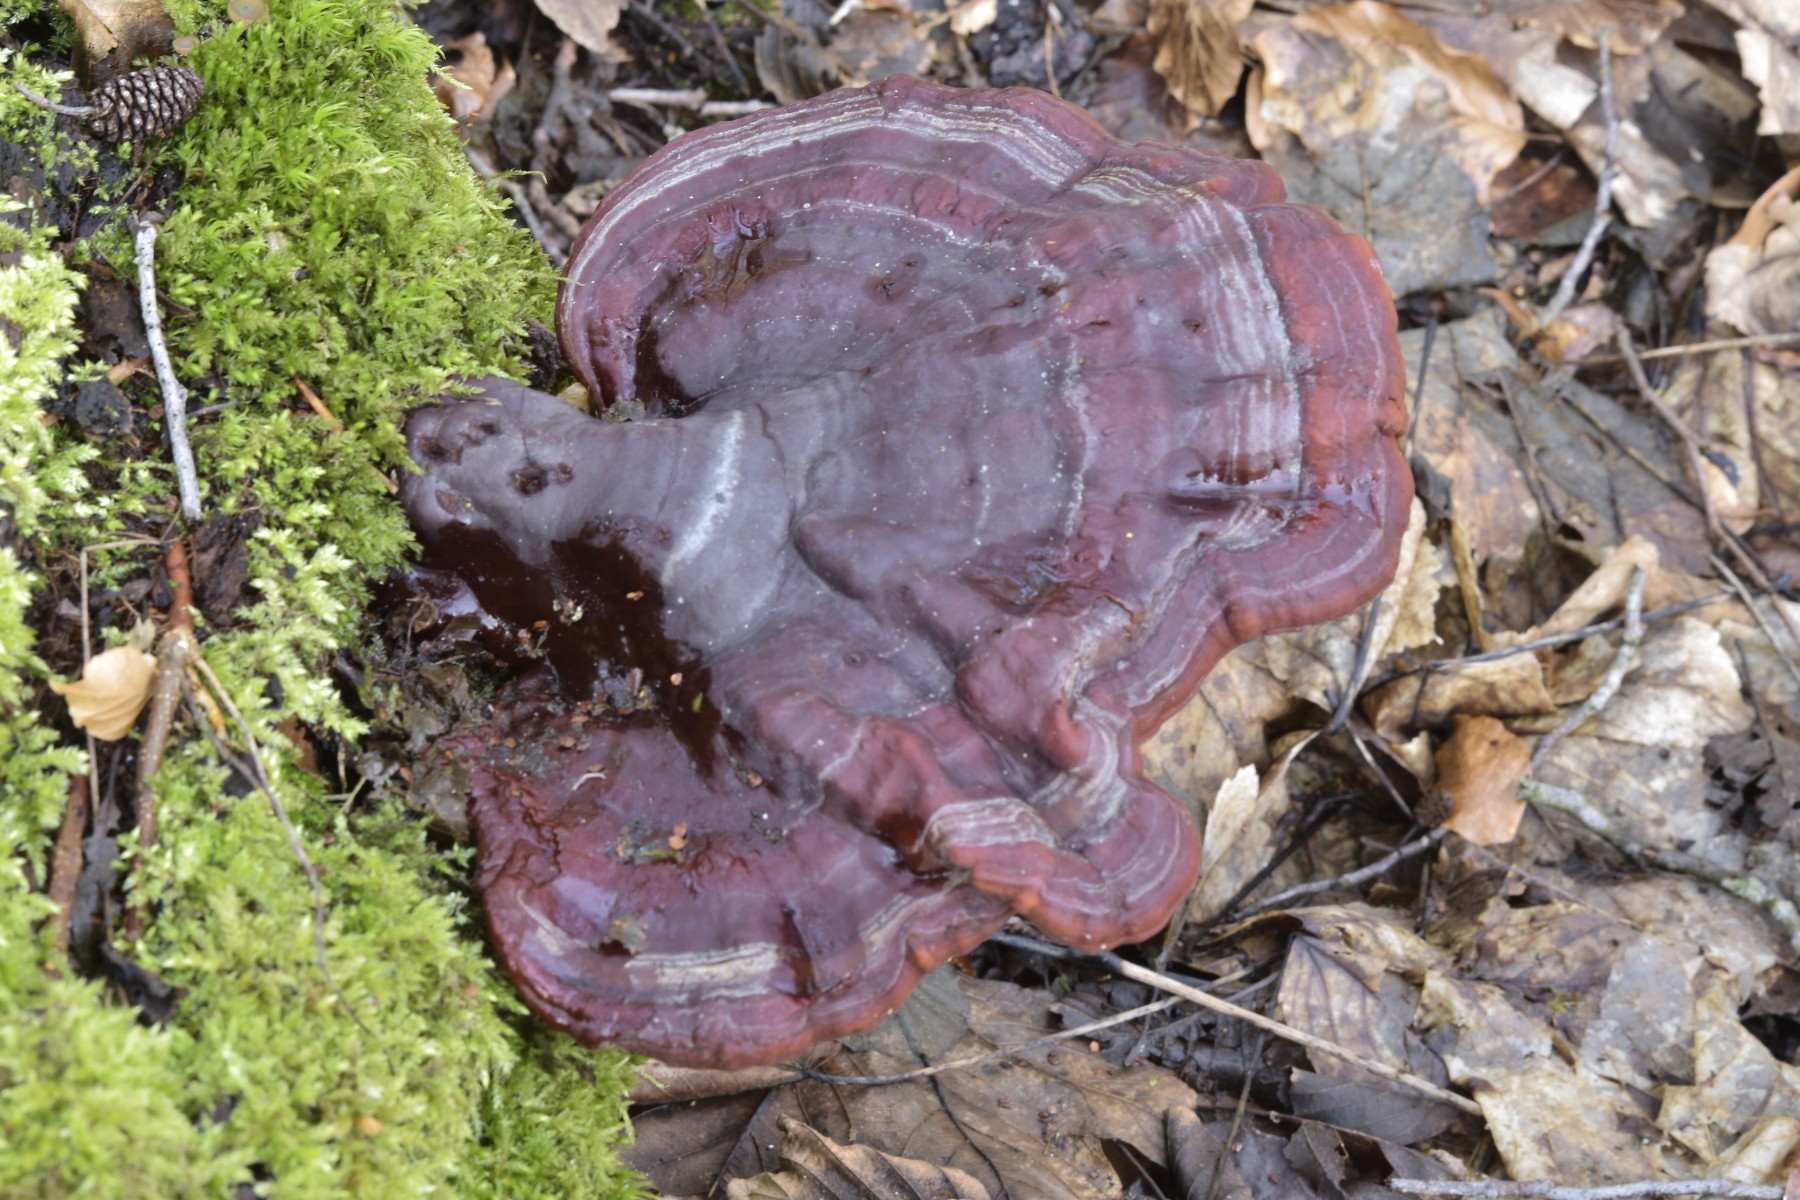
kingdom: Fungi
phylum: Basidiomycota
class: Agaricomycetes
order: Polyporales
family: Polyporaceae
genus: Ganoderma
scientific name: Ganoderma lucidum
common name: skinnende lakporesvamp
